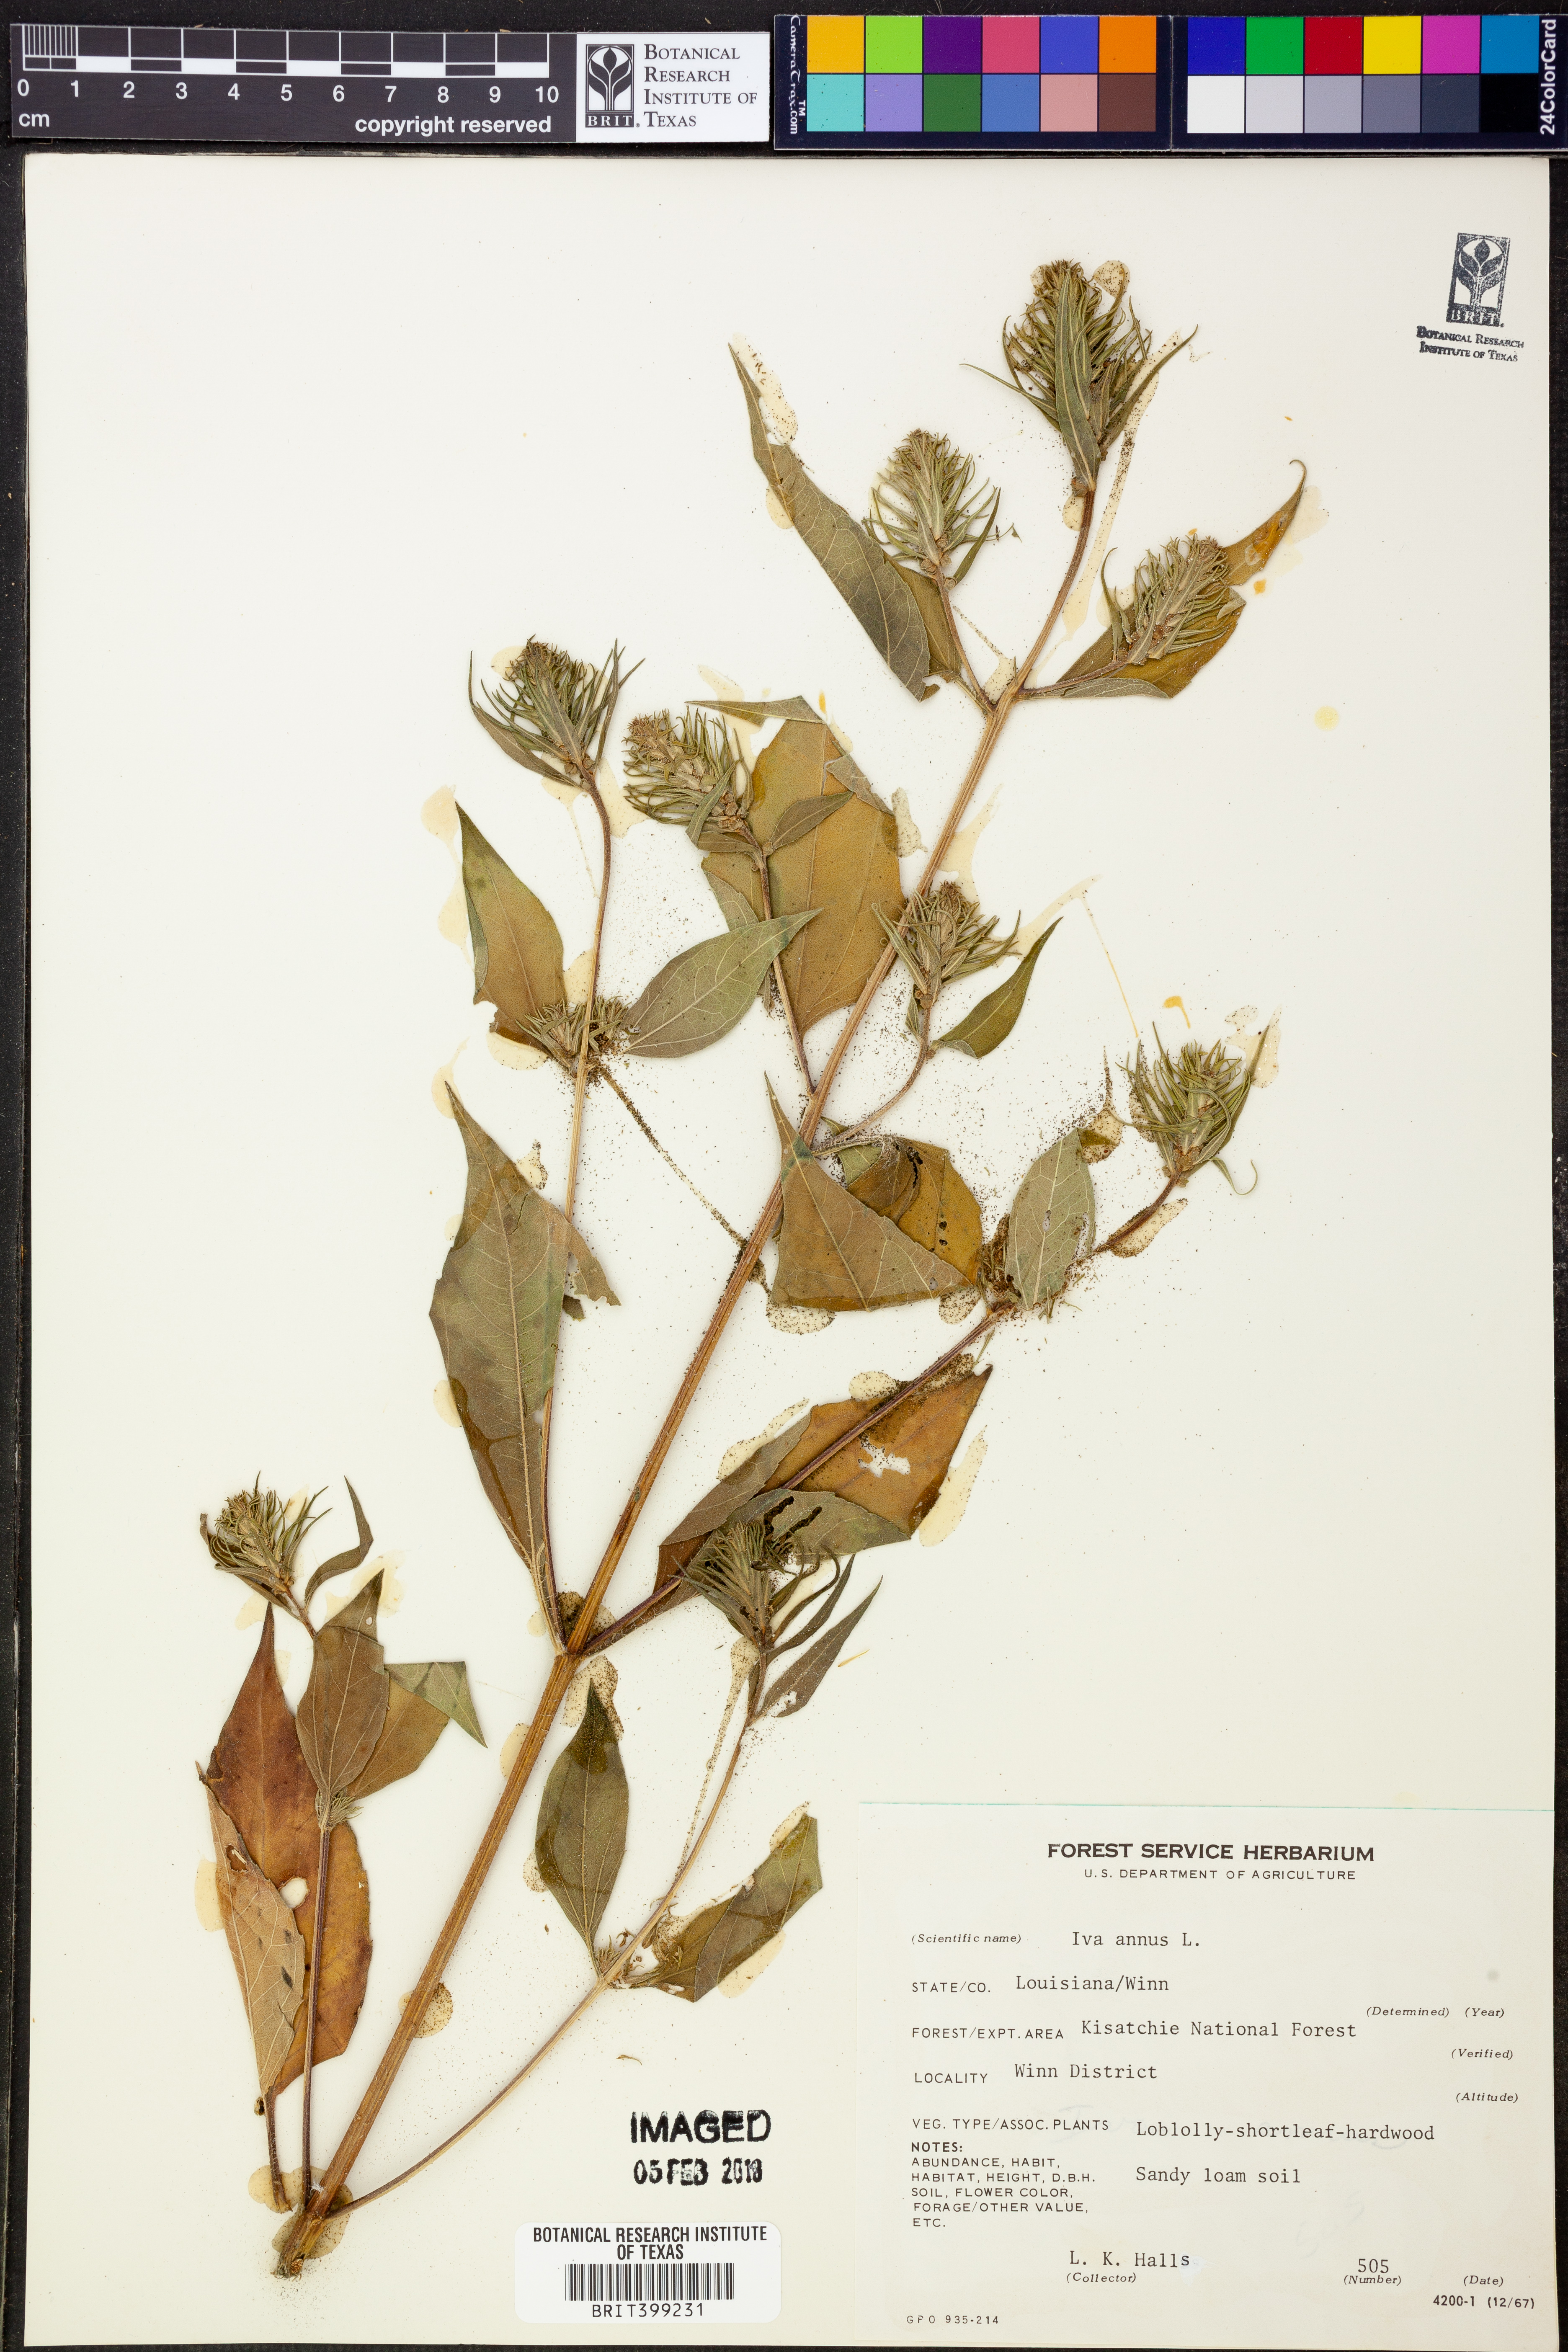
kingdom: Plantae
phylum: Tracheophyta
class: Magnoliopsida
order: Asterales
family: Asteraceae
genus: Iva
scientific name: Iva annua
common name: Marsh-elder
